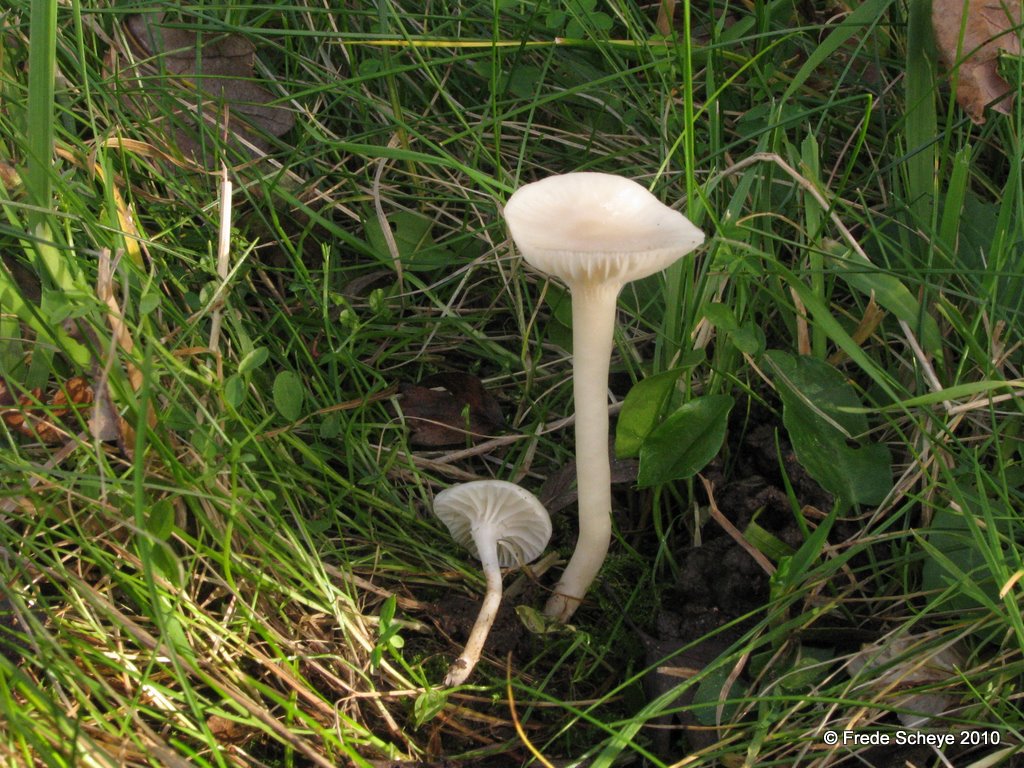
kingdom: Fungi
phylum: Basidiomycota
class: Agaricomycetes
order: Agaricales
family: Hygrophoraceae
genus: Cuphophyllus
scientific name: Cuphophyllus virgineus
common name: snehvid vokshat
